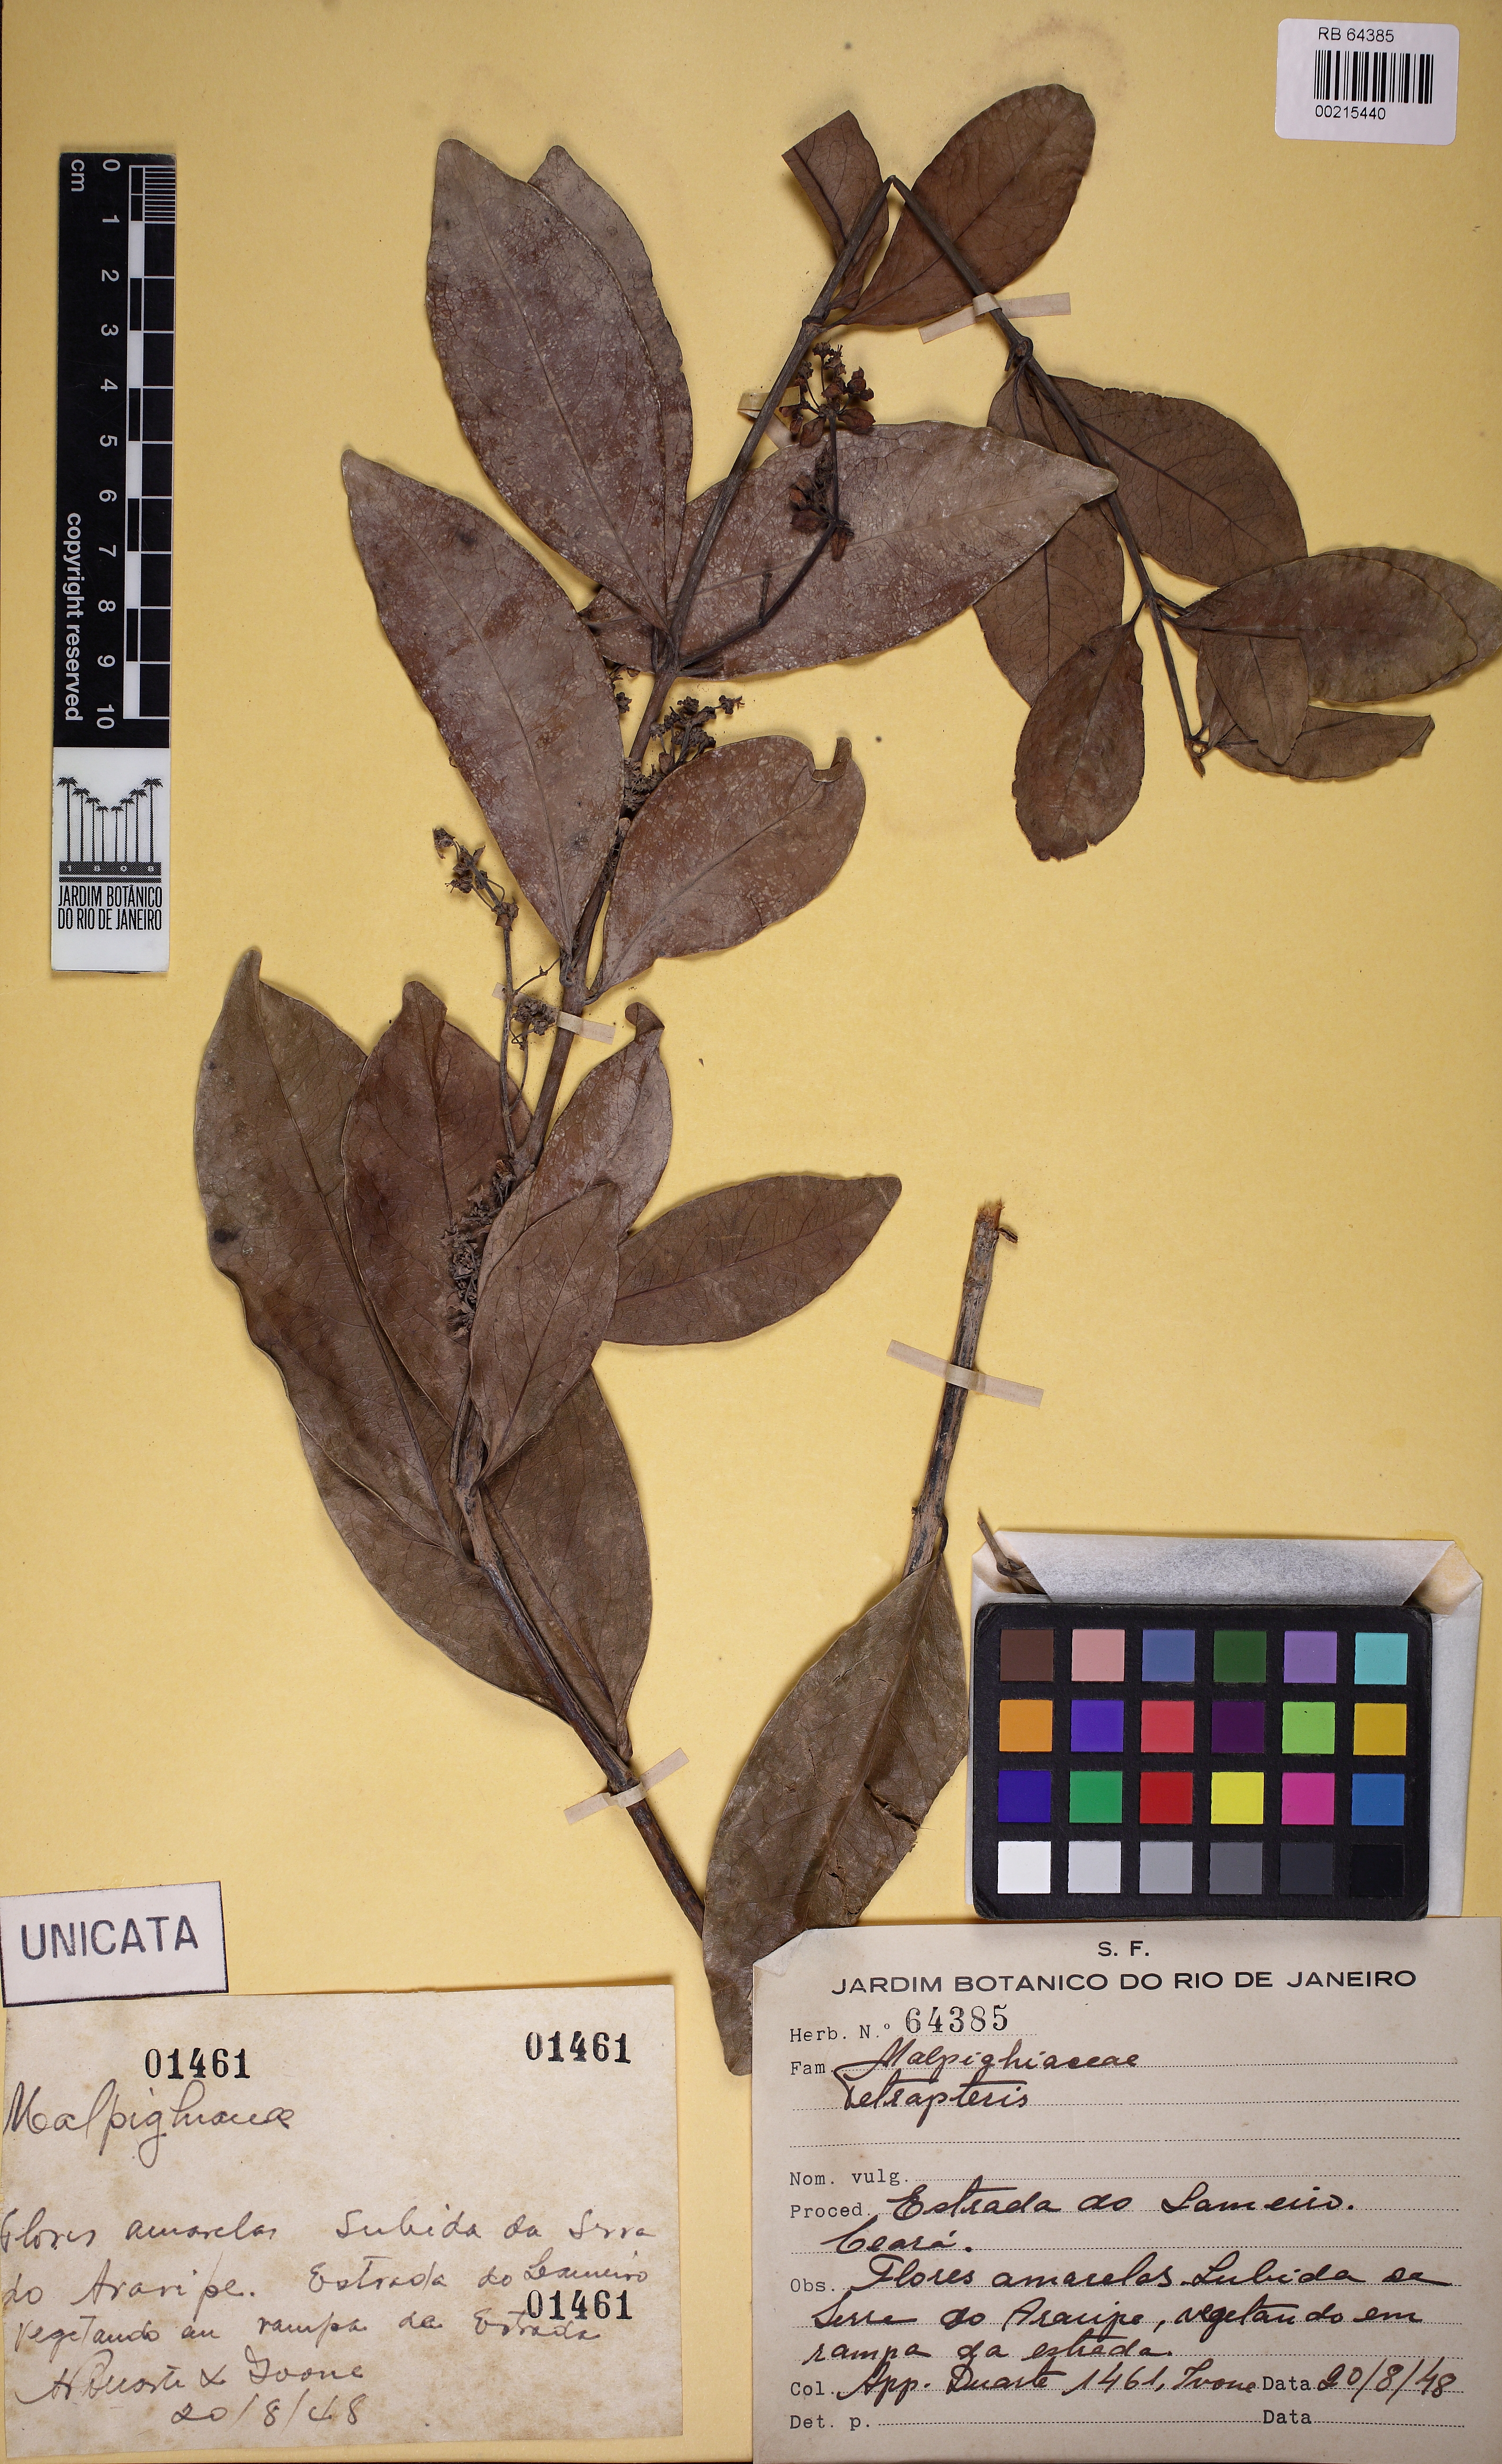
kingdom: Plantae
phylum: Tracheophyta
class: Magnoliopsida
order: Malpighiales
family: Malpighiaceae
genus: Tetrapterys
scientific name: Tetrapterys
